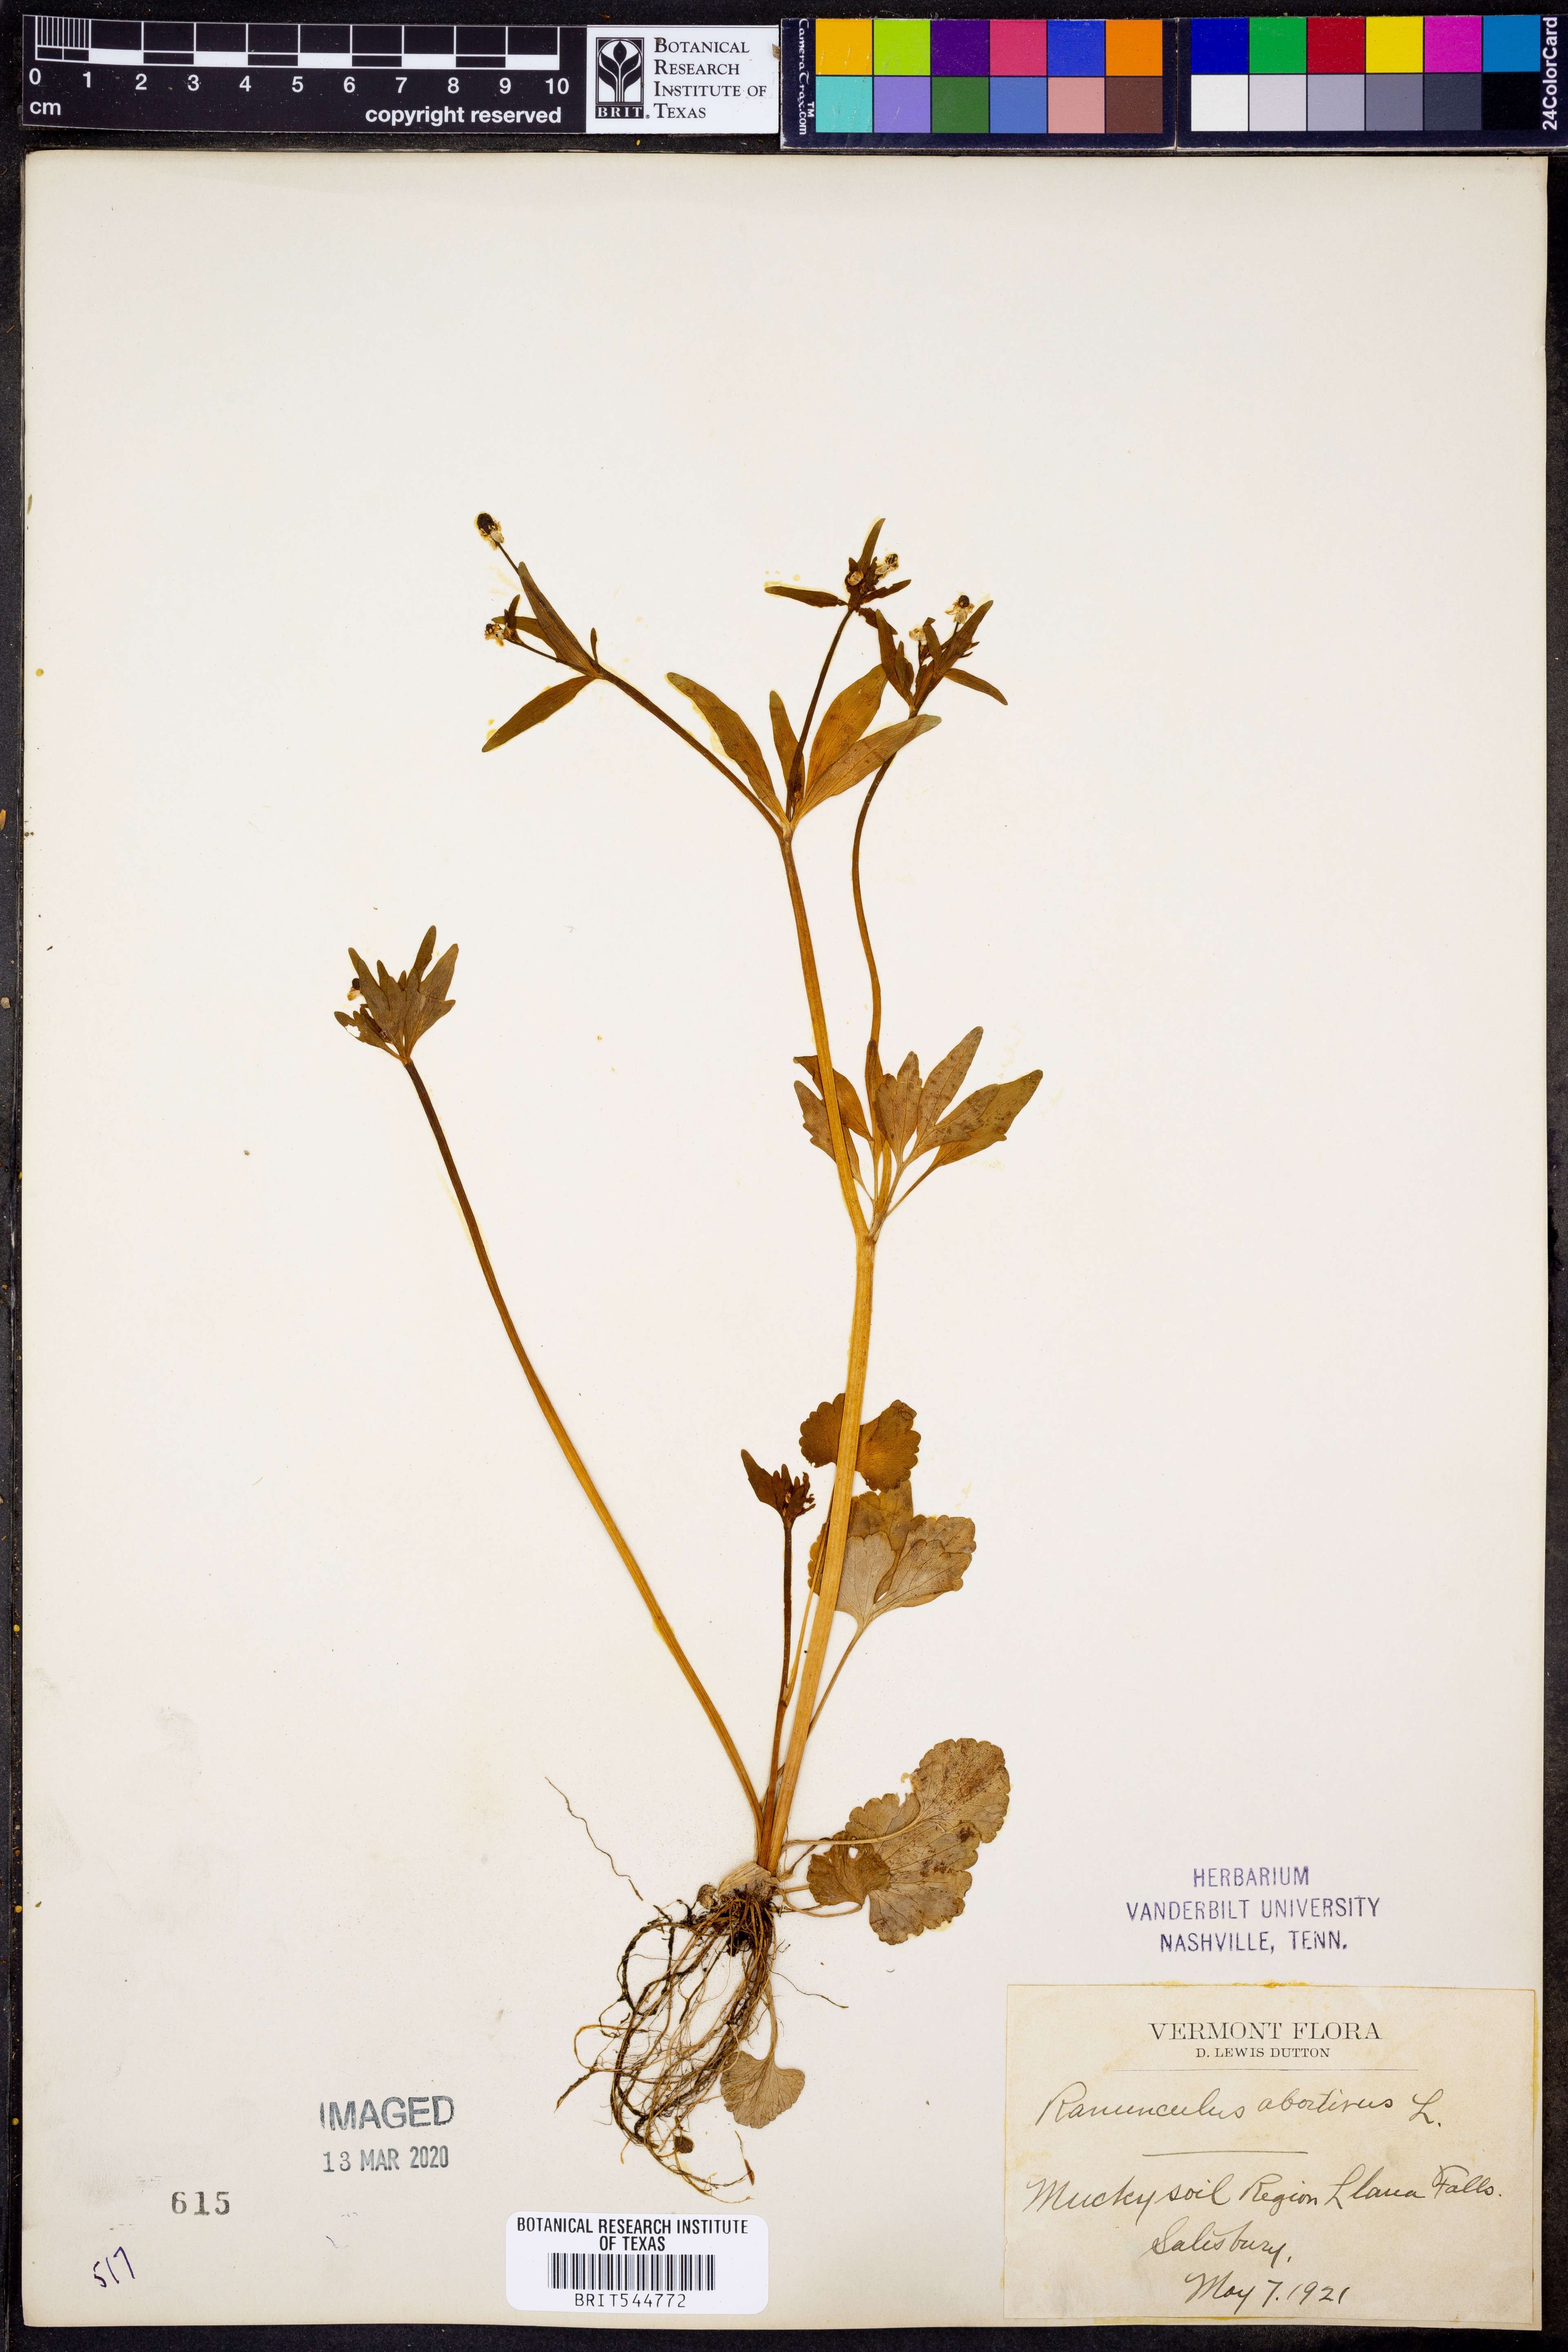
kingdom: Plantae
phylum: Tracheophyta
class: Magnoliopsida
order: Ranunculales
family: Ranunculaceae
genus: Ranunculus
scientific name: Ranunculus abortivus
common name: Early wood buttercup
